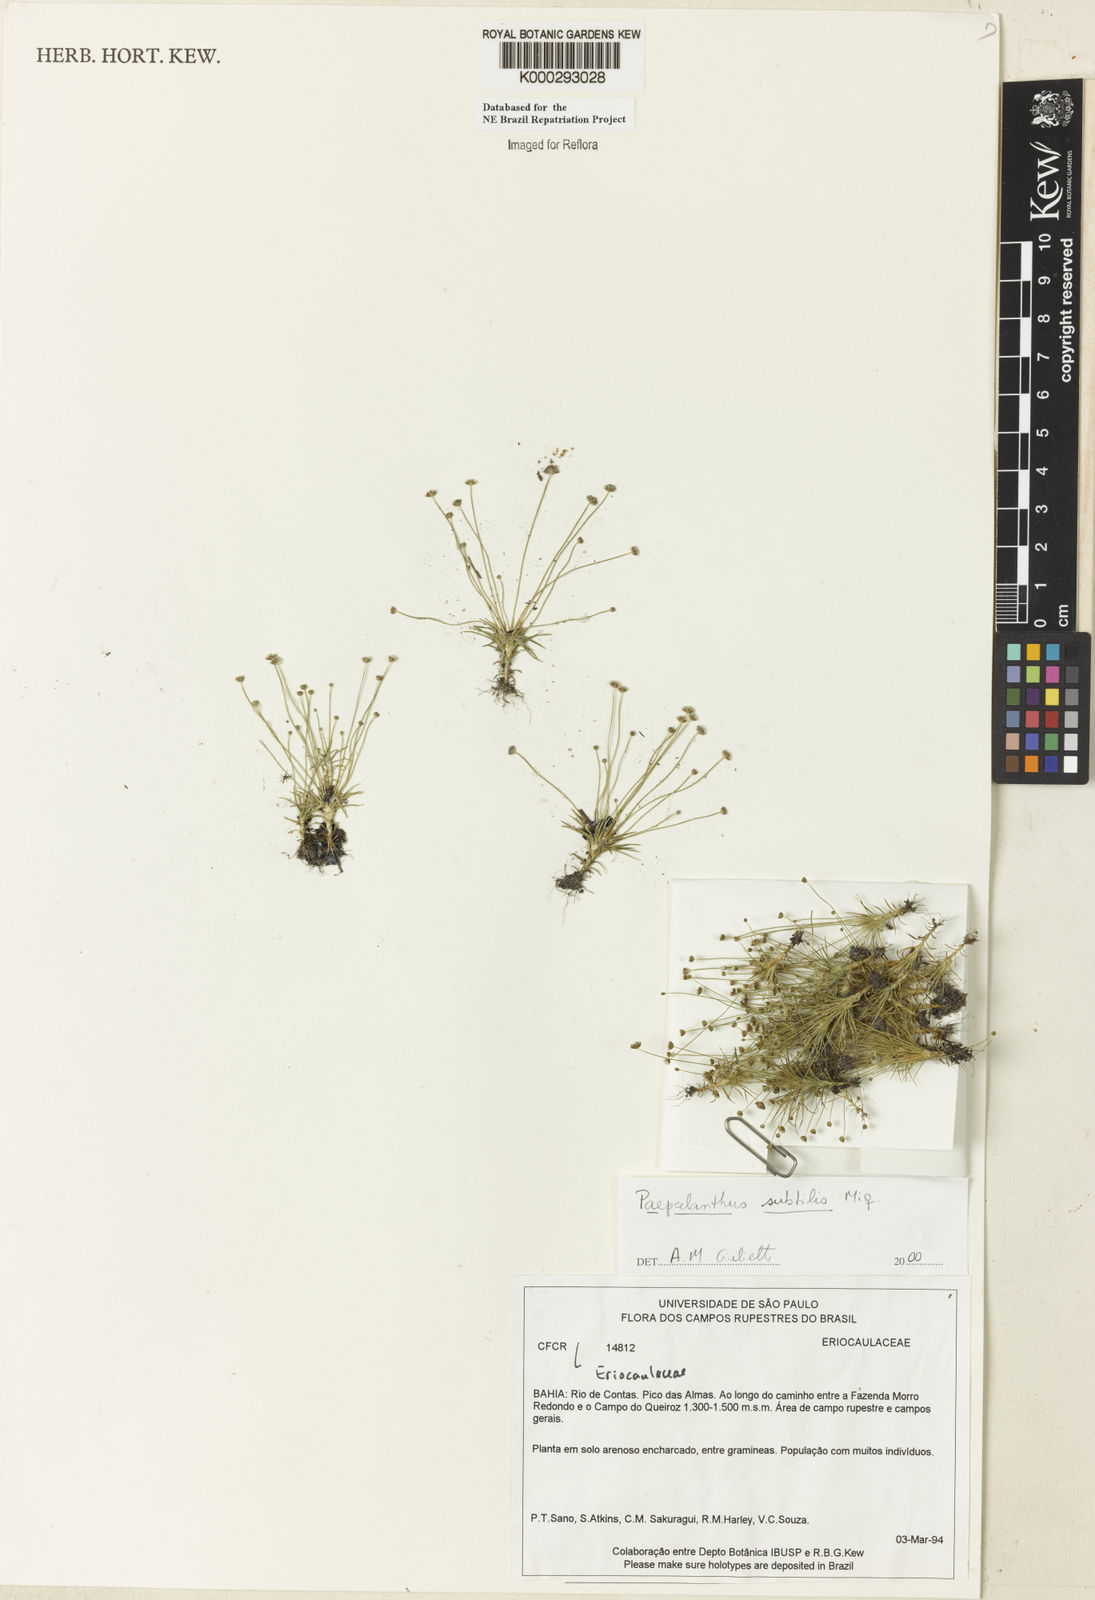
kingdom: Plantae
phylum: Tracheophyta
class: Liliopsida
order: Poales
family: Eriocaulaceae
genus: Paepalanthus
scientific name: Paepalanthus subtilis
